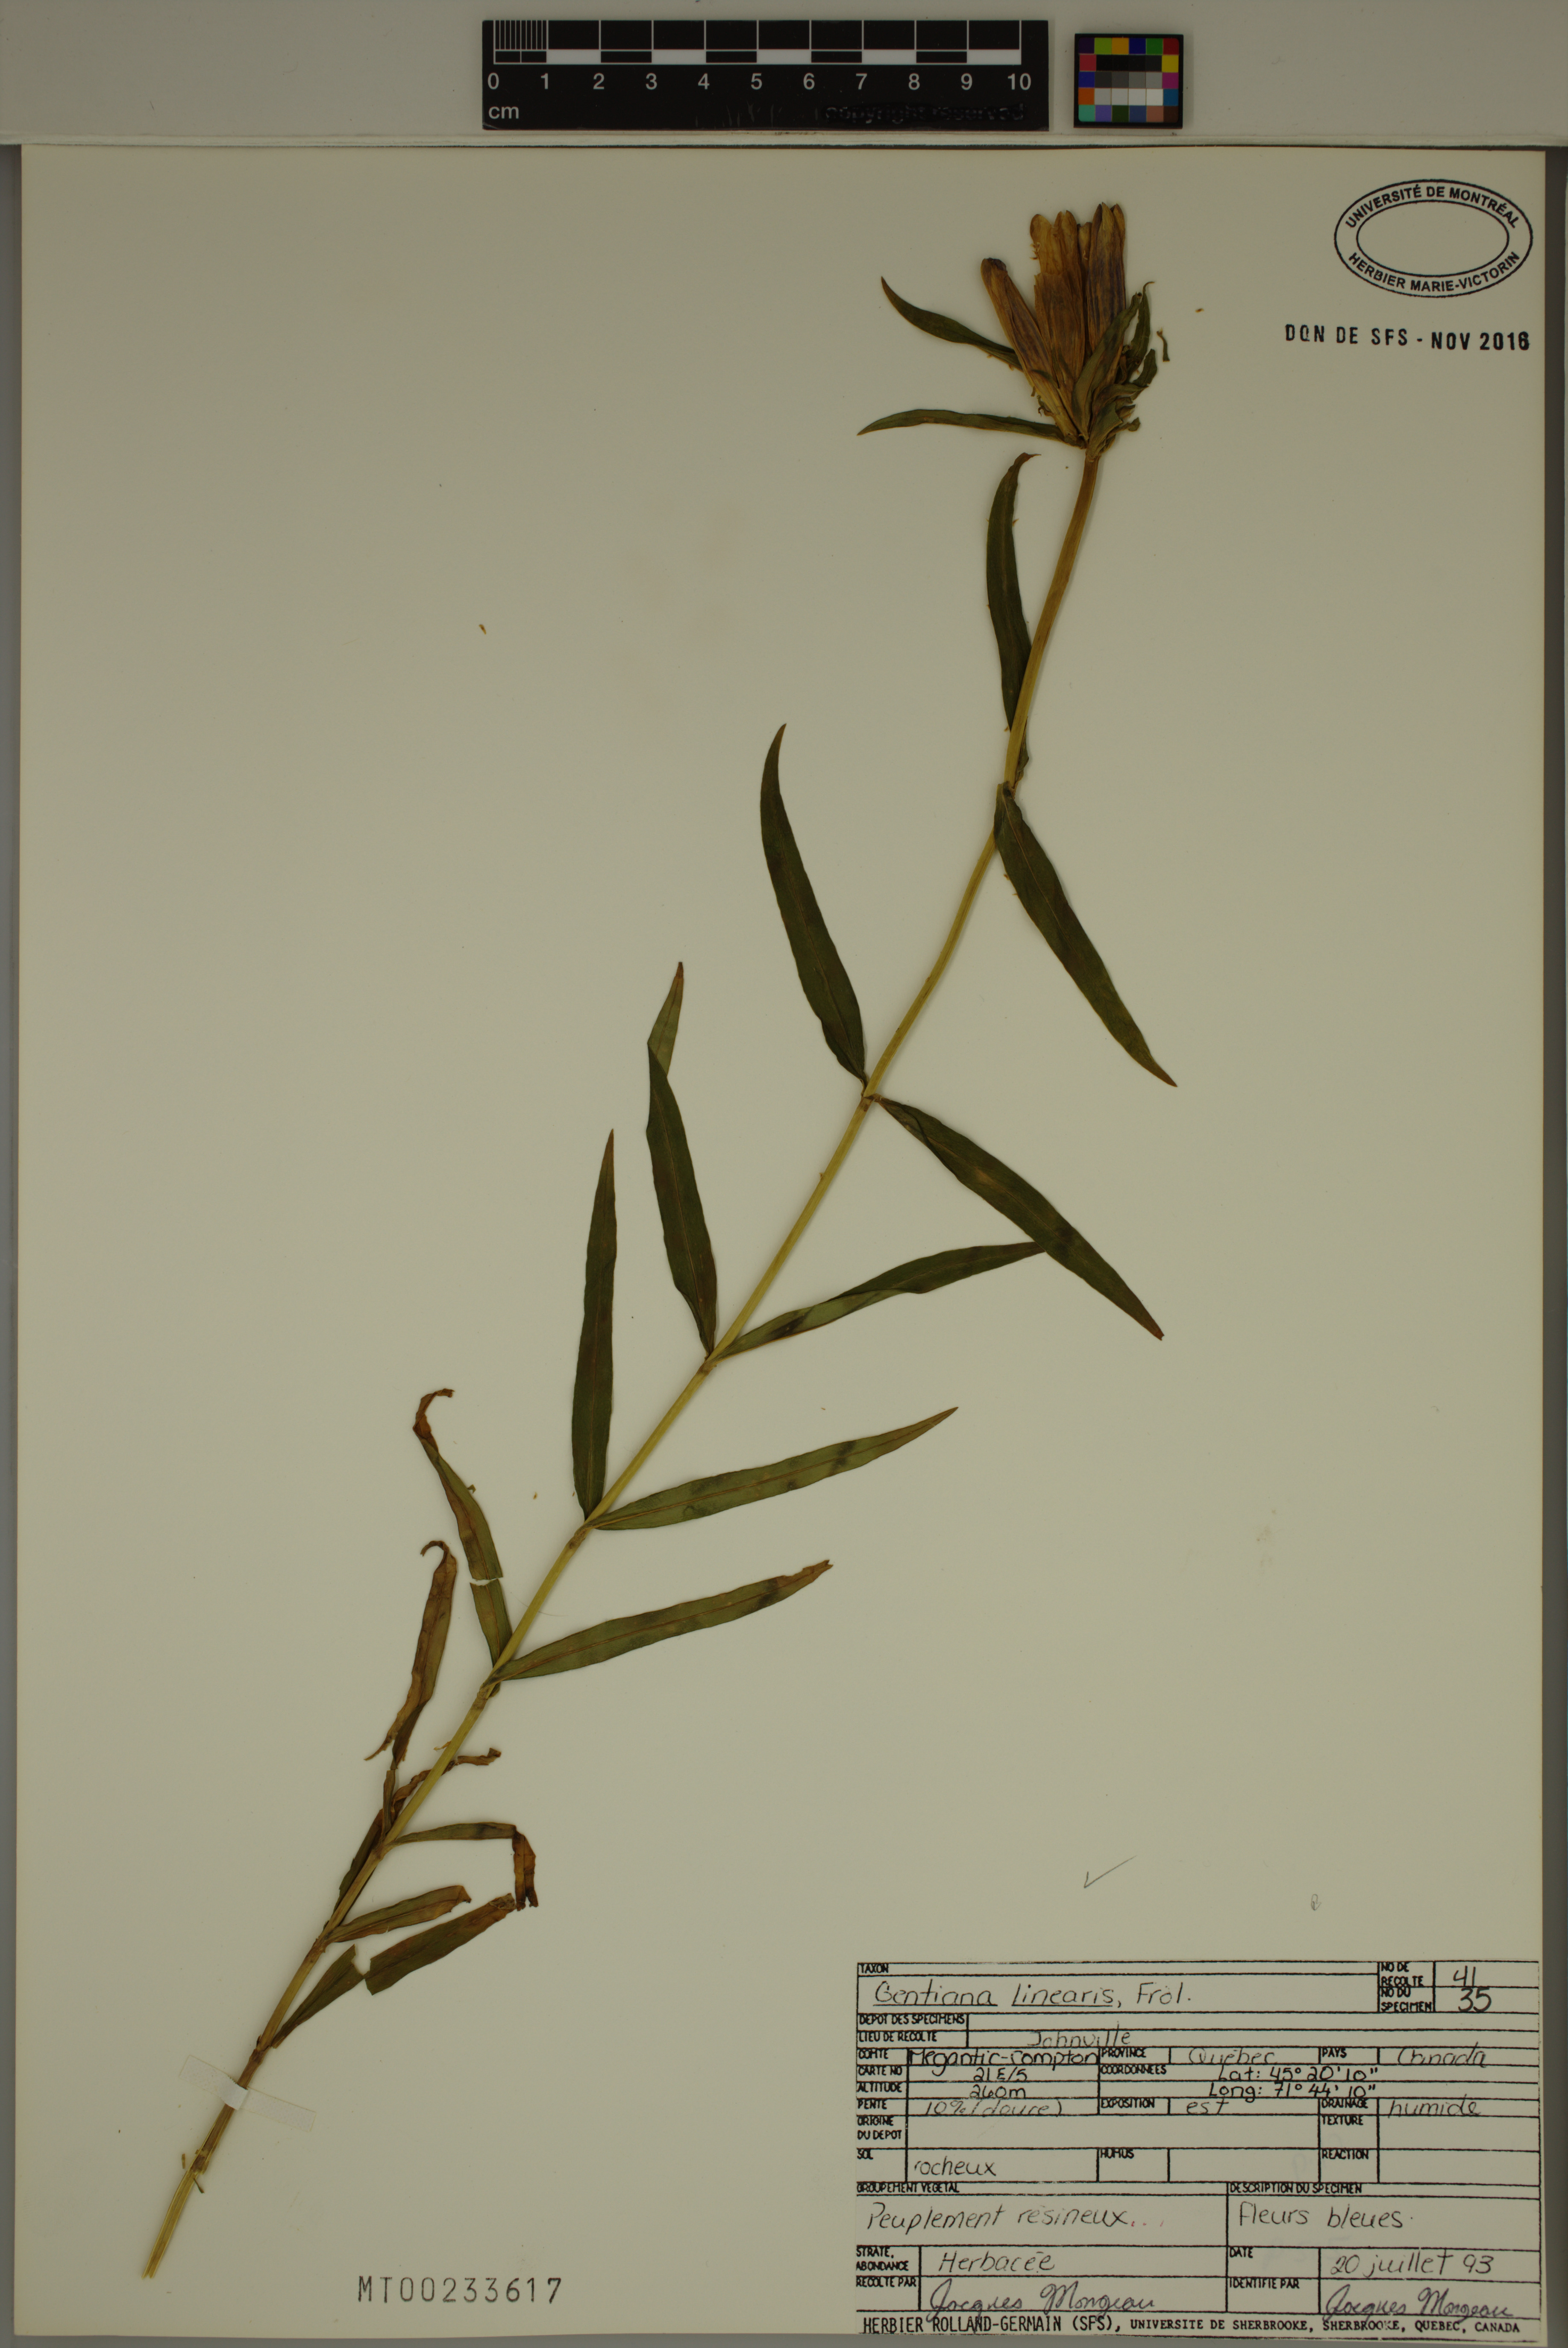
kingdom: Plantae
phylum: Tracheophyta
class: Magnoliopsida
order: Gentianales
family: Gentianaceae
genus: Gentiana
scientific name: Gentiana linearis
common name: Bastard gentian
